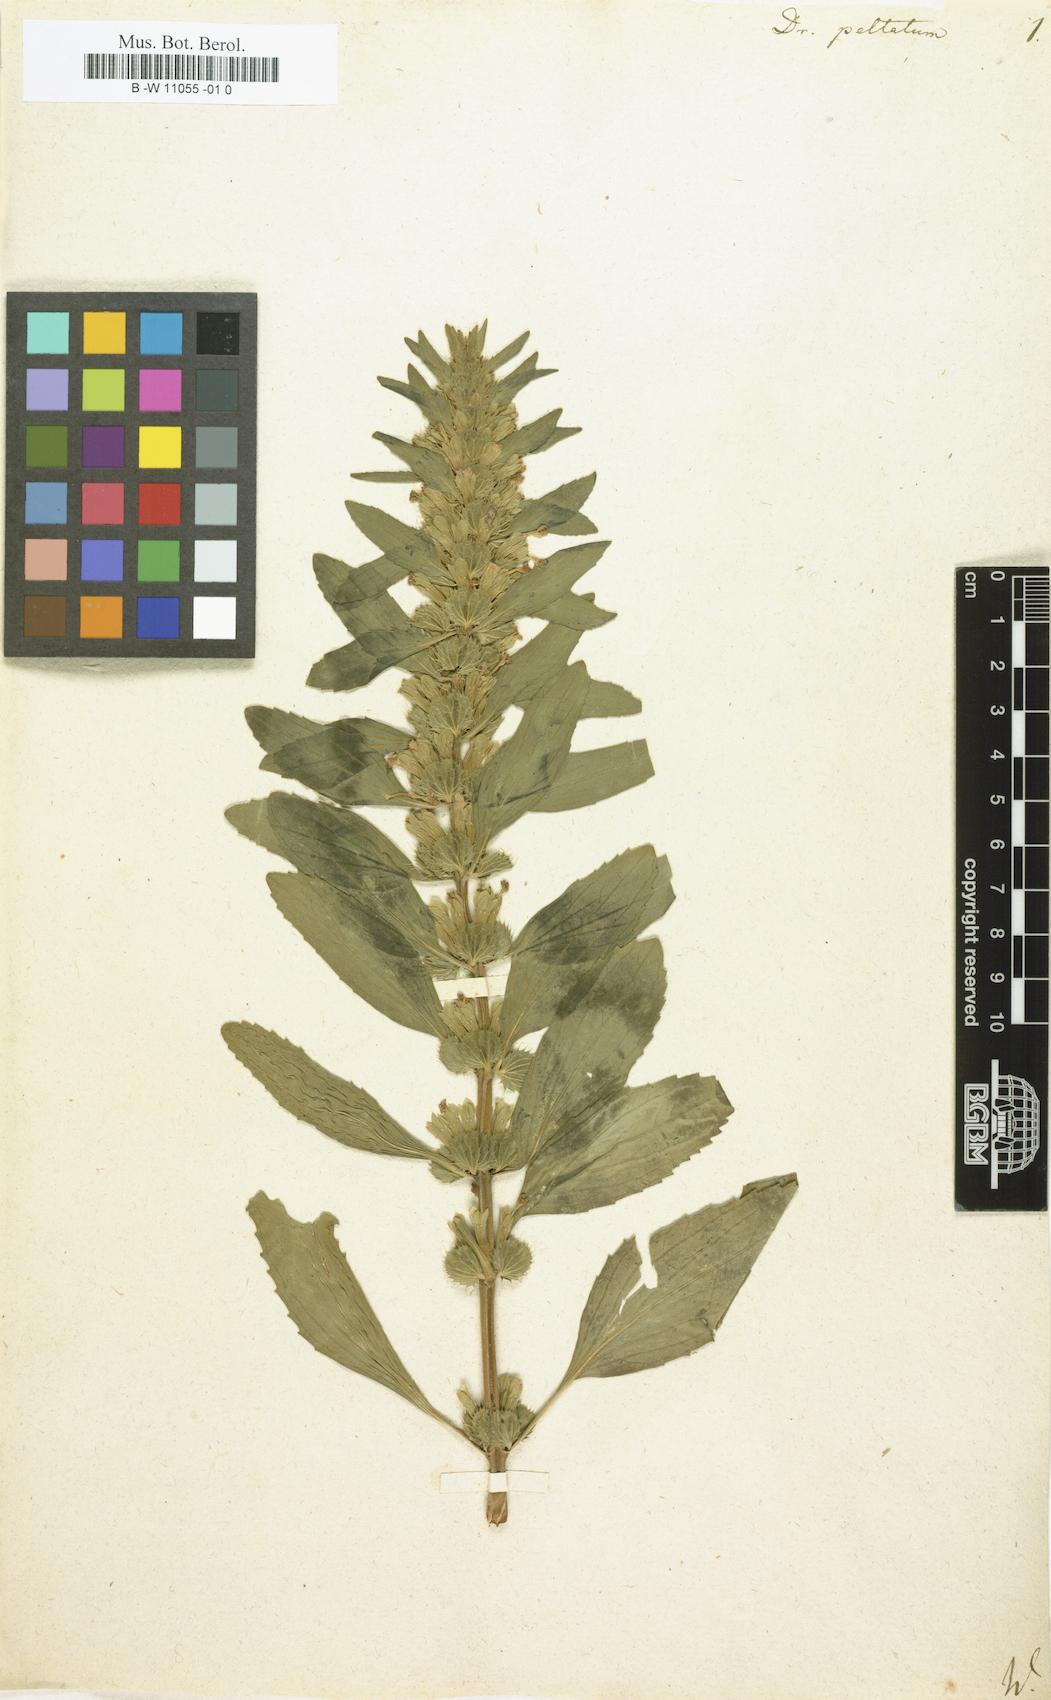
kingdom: Plantae
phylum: Tracheophyta
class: Magnoliopsida
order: Lamiales
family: Lamiaceae
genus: Lallemantia
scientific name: Lallemantia peltata
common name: Lion's heart
